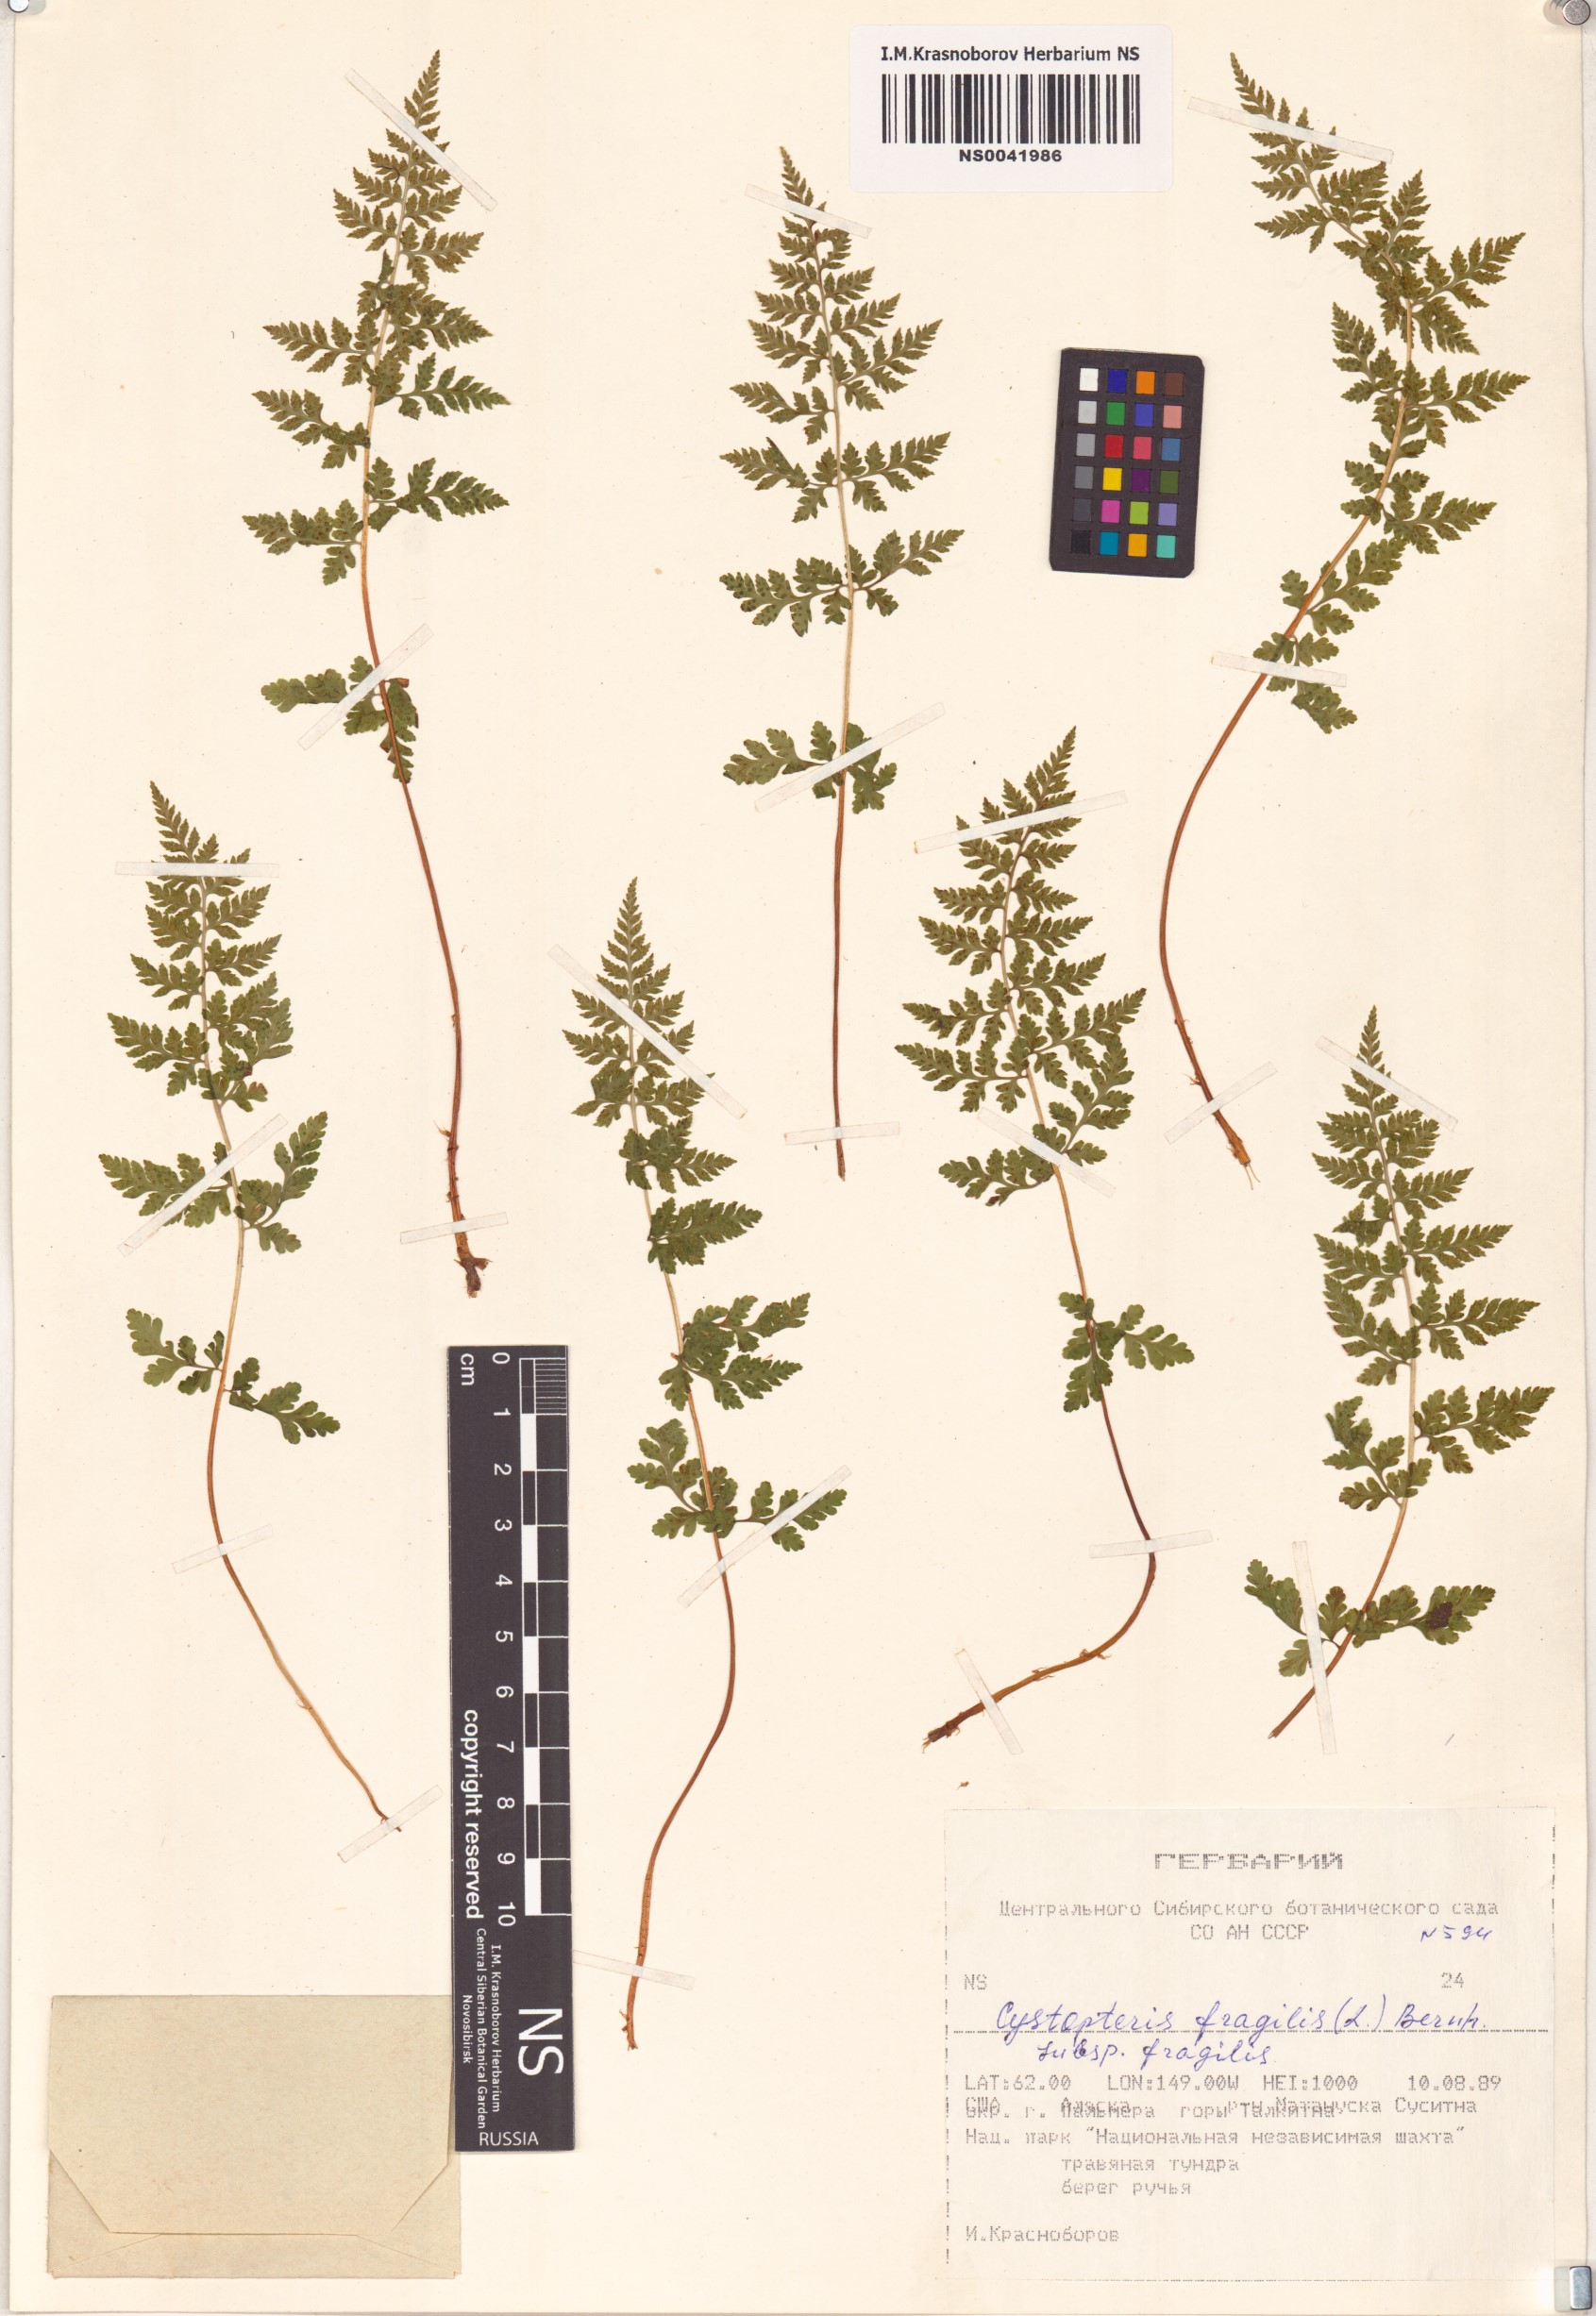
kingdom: Plantae
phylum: Tracheophyta
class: Polypodiopsida
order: Polypodiales
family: Cystopteridaceae
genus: Cystopteris
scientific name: Cystopteris fragilis
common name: Brittle bladder fern
